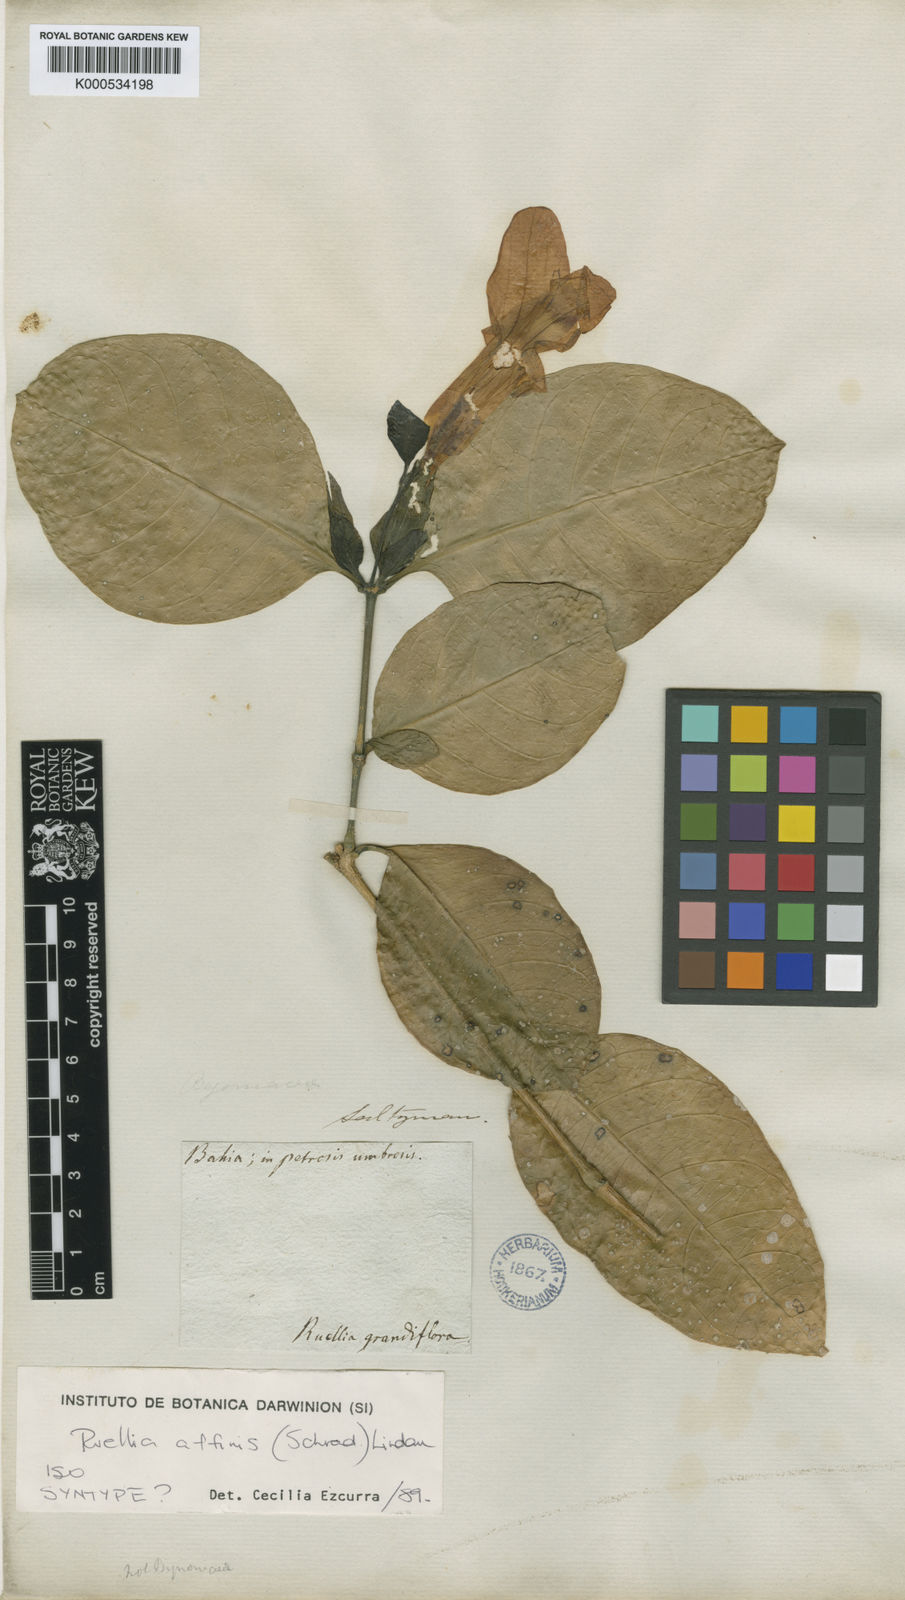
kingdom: Plantae
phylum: Tracheophyta
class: Magnoliopsida
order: Lamiales
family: Acanthaceae
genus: Ruellia
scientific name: Ruellia
